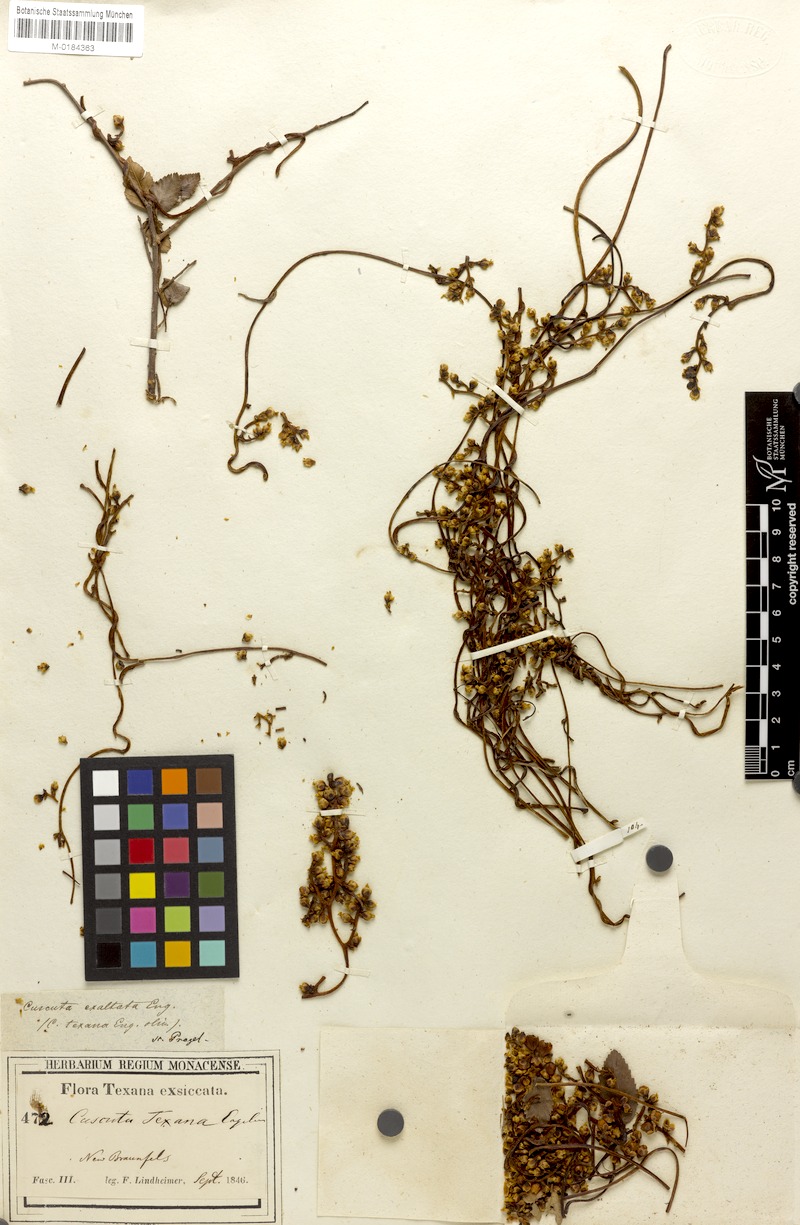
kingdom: Plantae
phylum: Tracheophyta
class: Magnoliopsida
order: Solanales
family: Convolvulaceae
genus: Cuscuta
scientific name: Cuscuta exaltata
